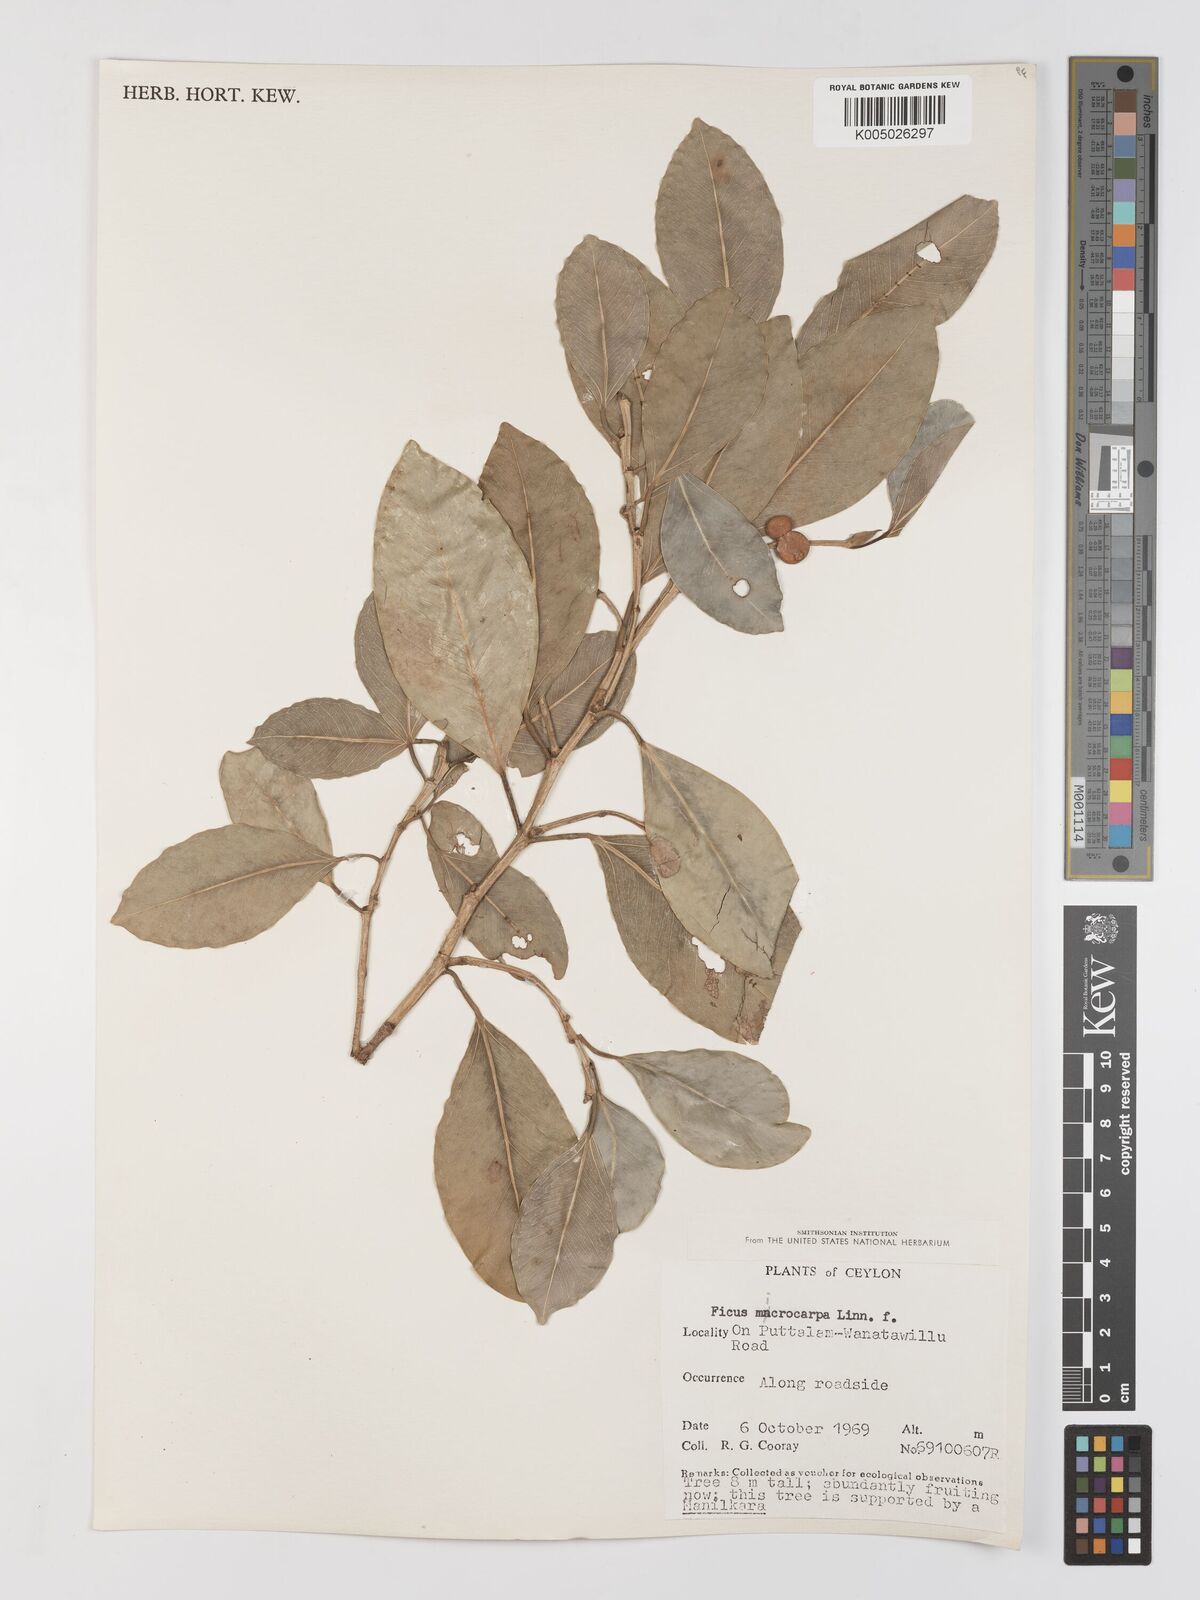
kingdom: Plantae
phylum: Tracheophyta
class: Magnoliopsida
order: Rosales
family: Moraceae
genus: Ficus
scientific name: Ficus
